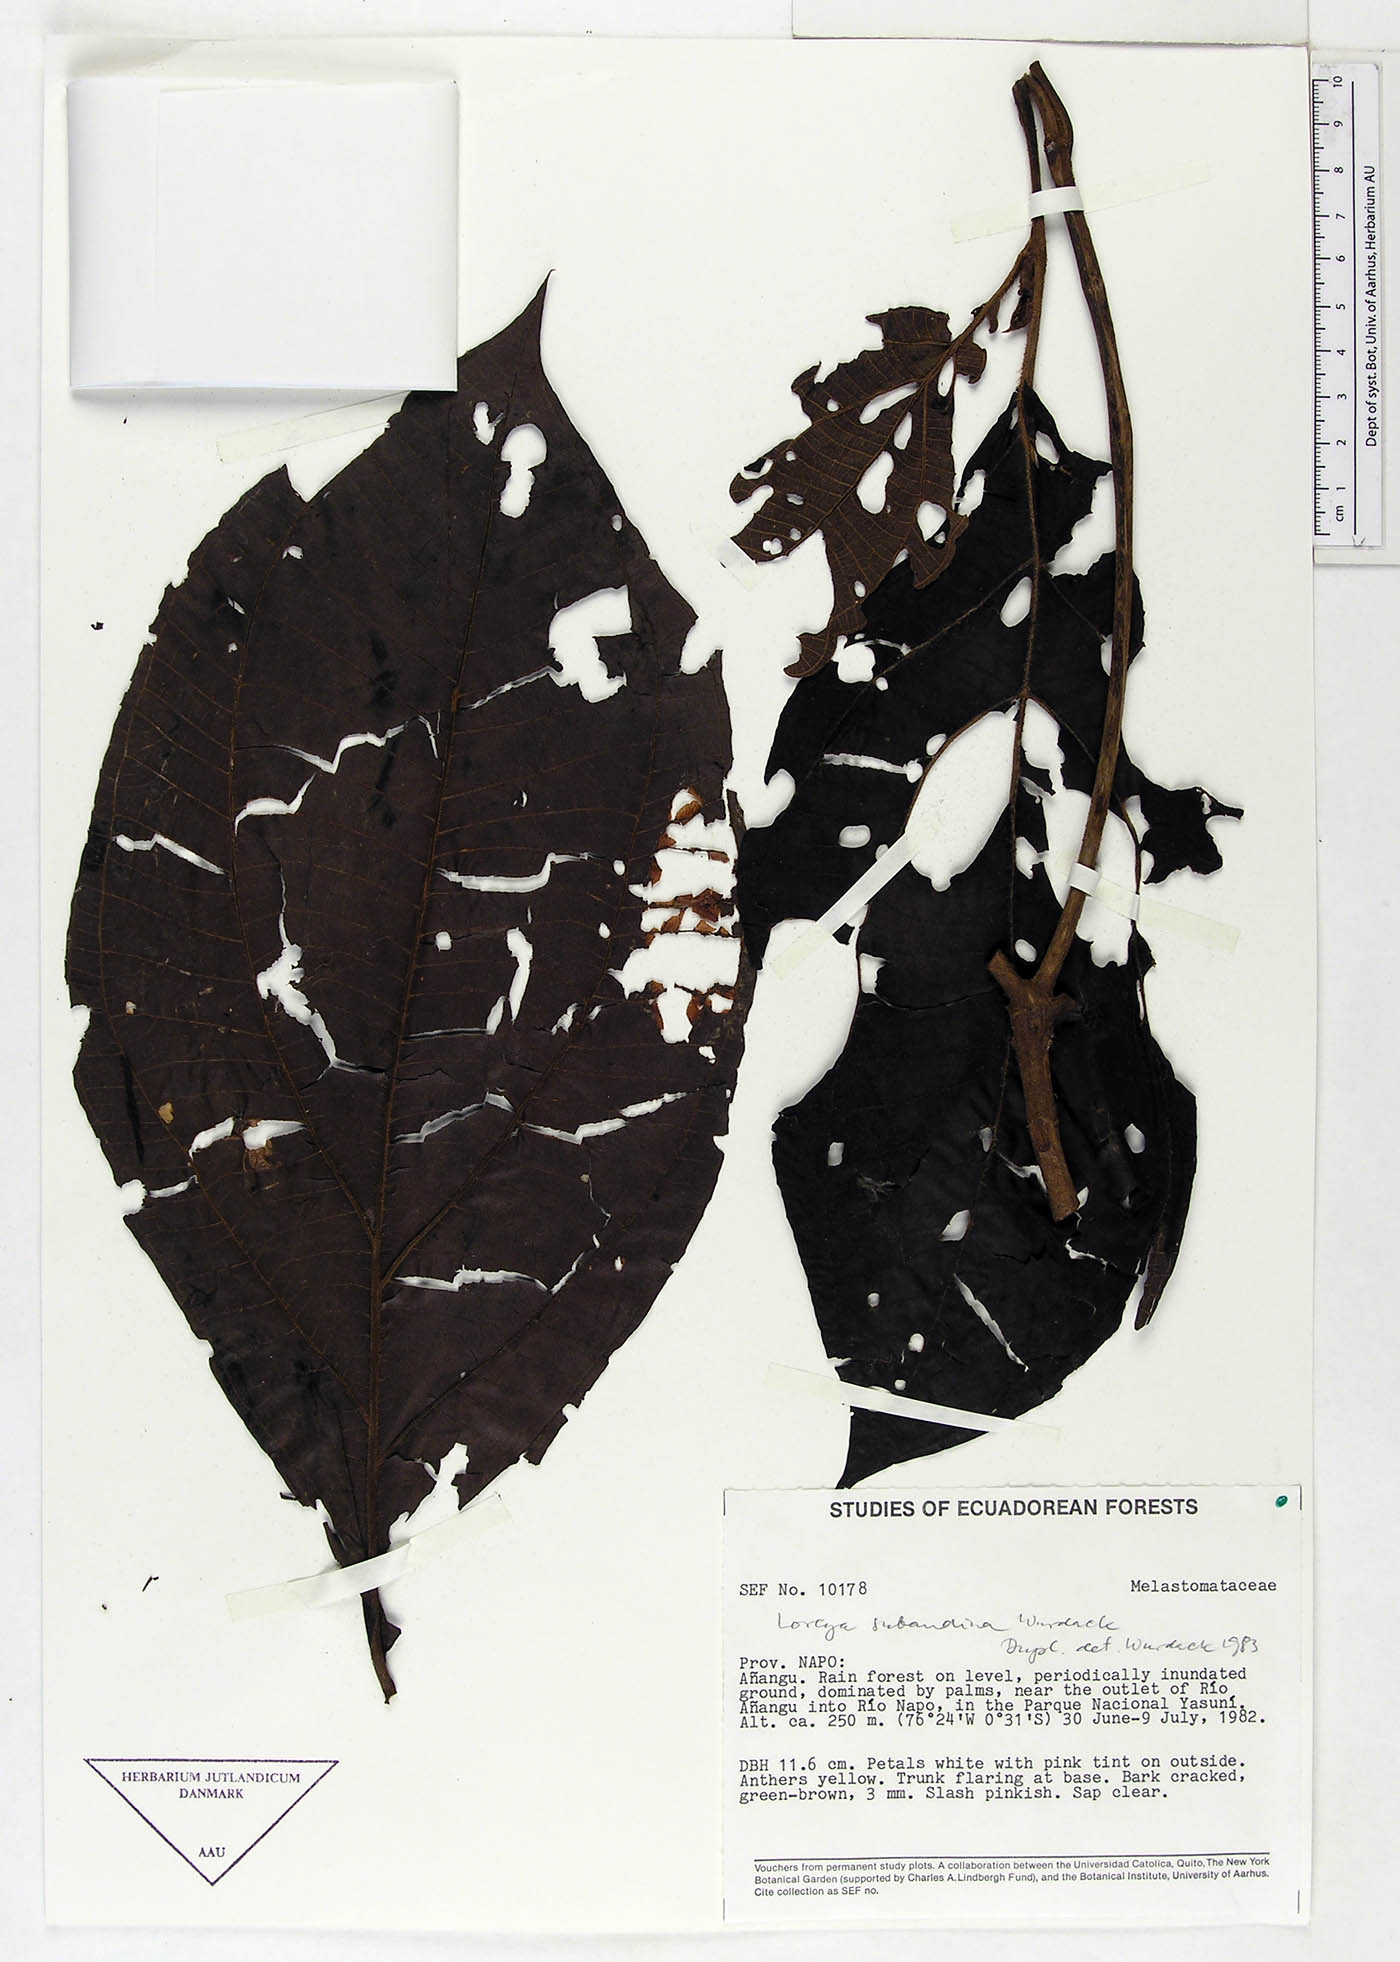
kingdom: Plantae
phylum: Tracheophyta
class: Magnoliopsida
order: Myrtales
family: Melastomataceae
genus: Bellucia
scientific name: Bellucia subandina
